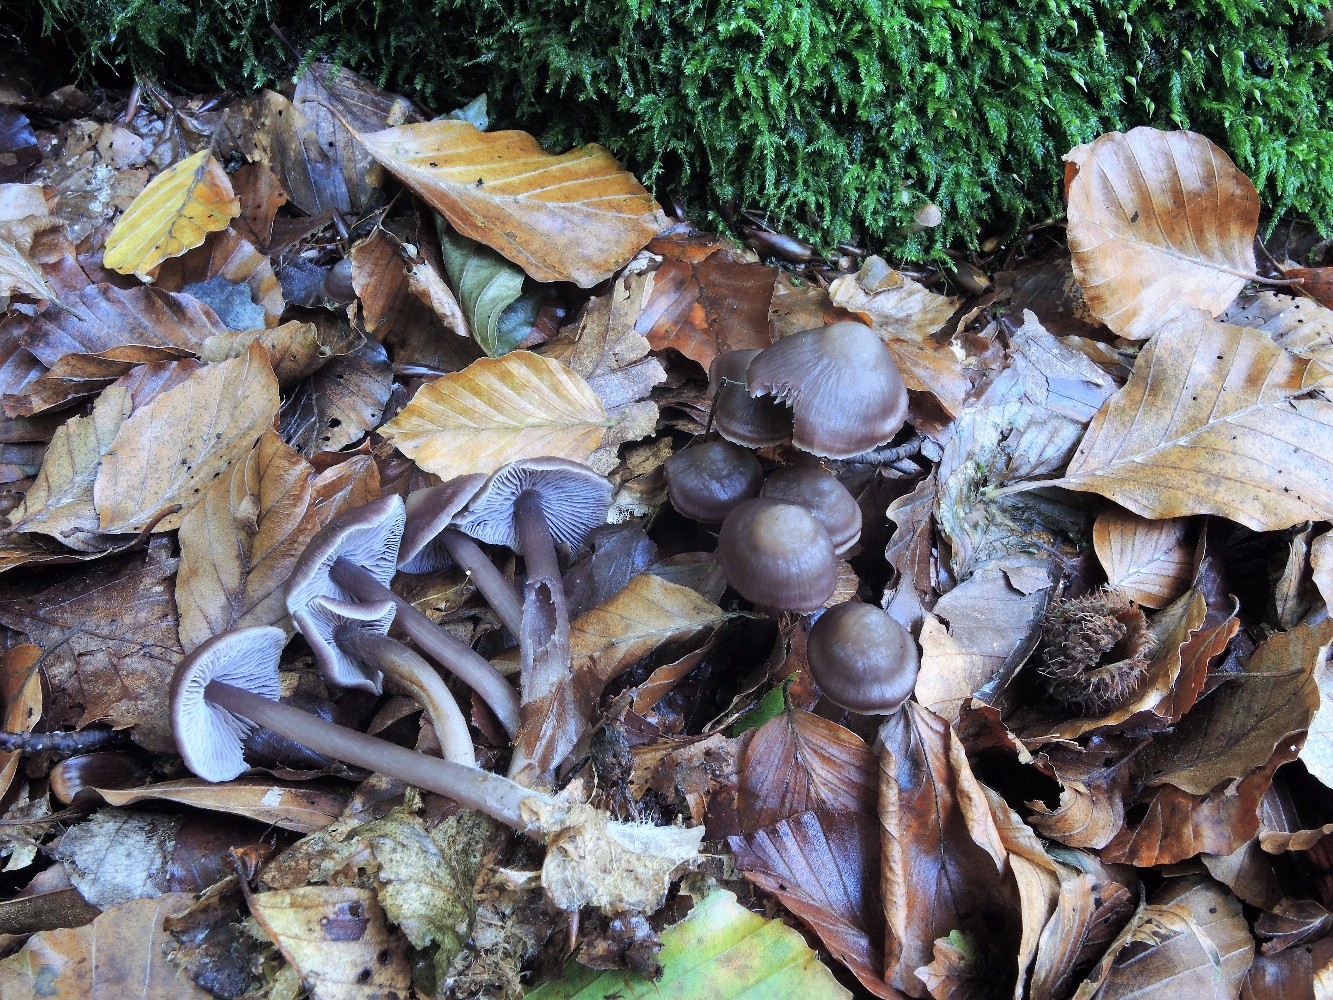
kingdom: Fungi
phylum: Basidiomycota
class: Agaricomycetes
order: Agaricales
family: Mycenaceae
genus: Prunulus
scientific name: Prunulus diosmus
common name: tobaks-huesvamp
